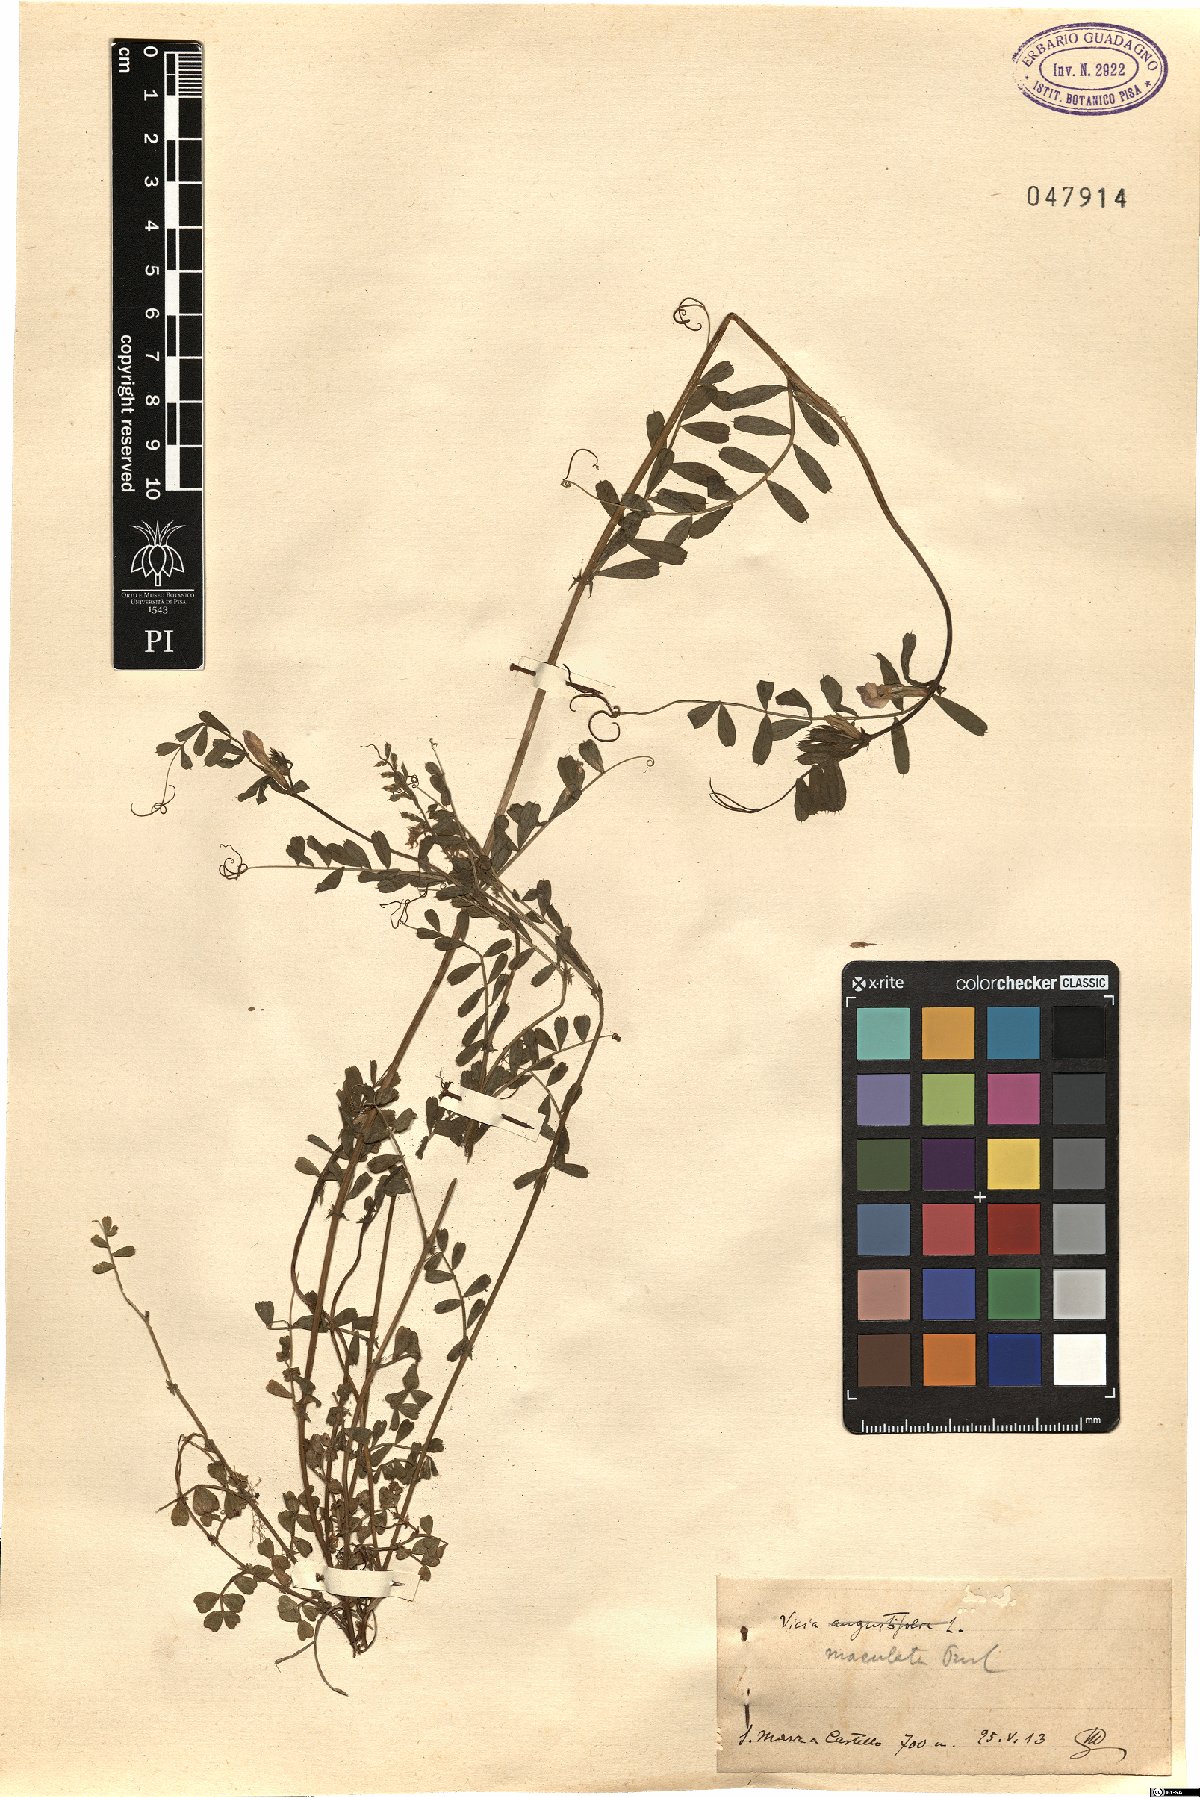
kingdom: Plantae
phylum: Tracheophyta
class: Magnoliopsida
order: Fabales
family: Fabaceae
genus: Vicia
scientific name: Vicia sativa
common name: Garden vetch
